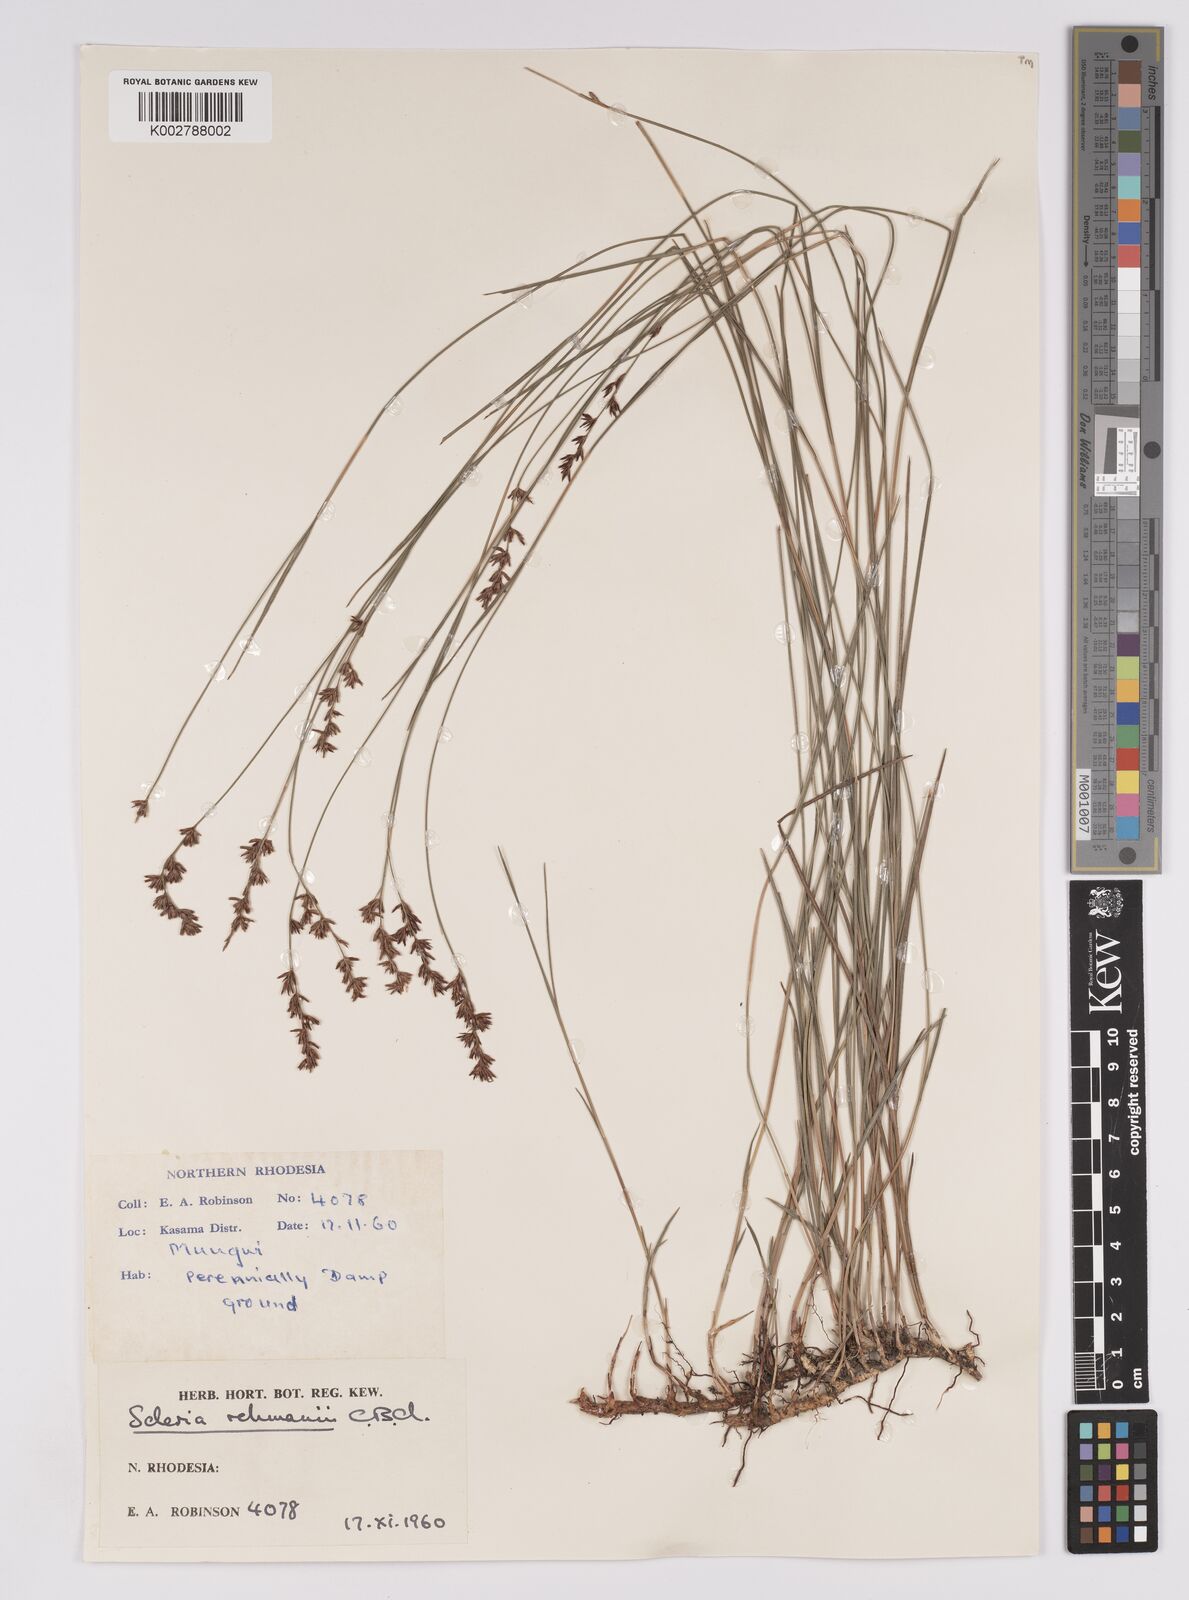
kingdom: Plantae
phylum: Tracheophyta
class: Liliopsida
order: Poales
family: Cyperaceae
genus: Scleria
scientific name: Scleria rehmannii
